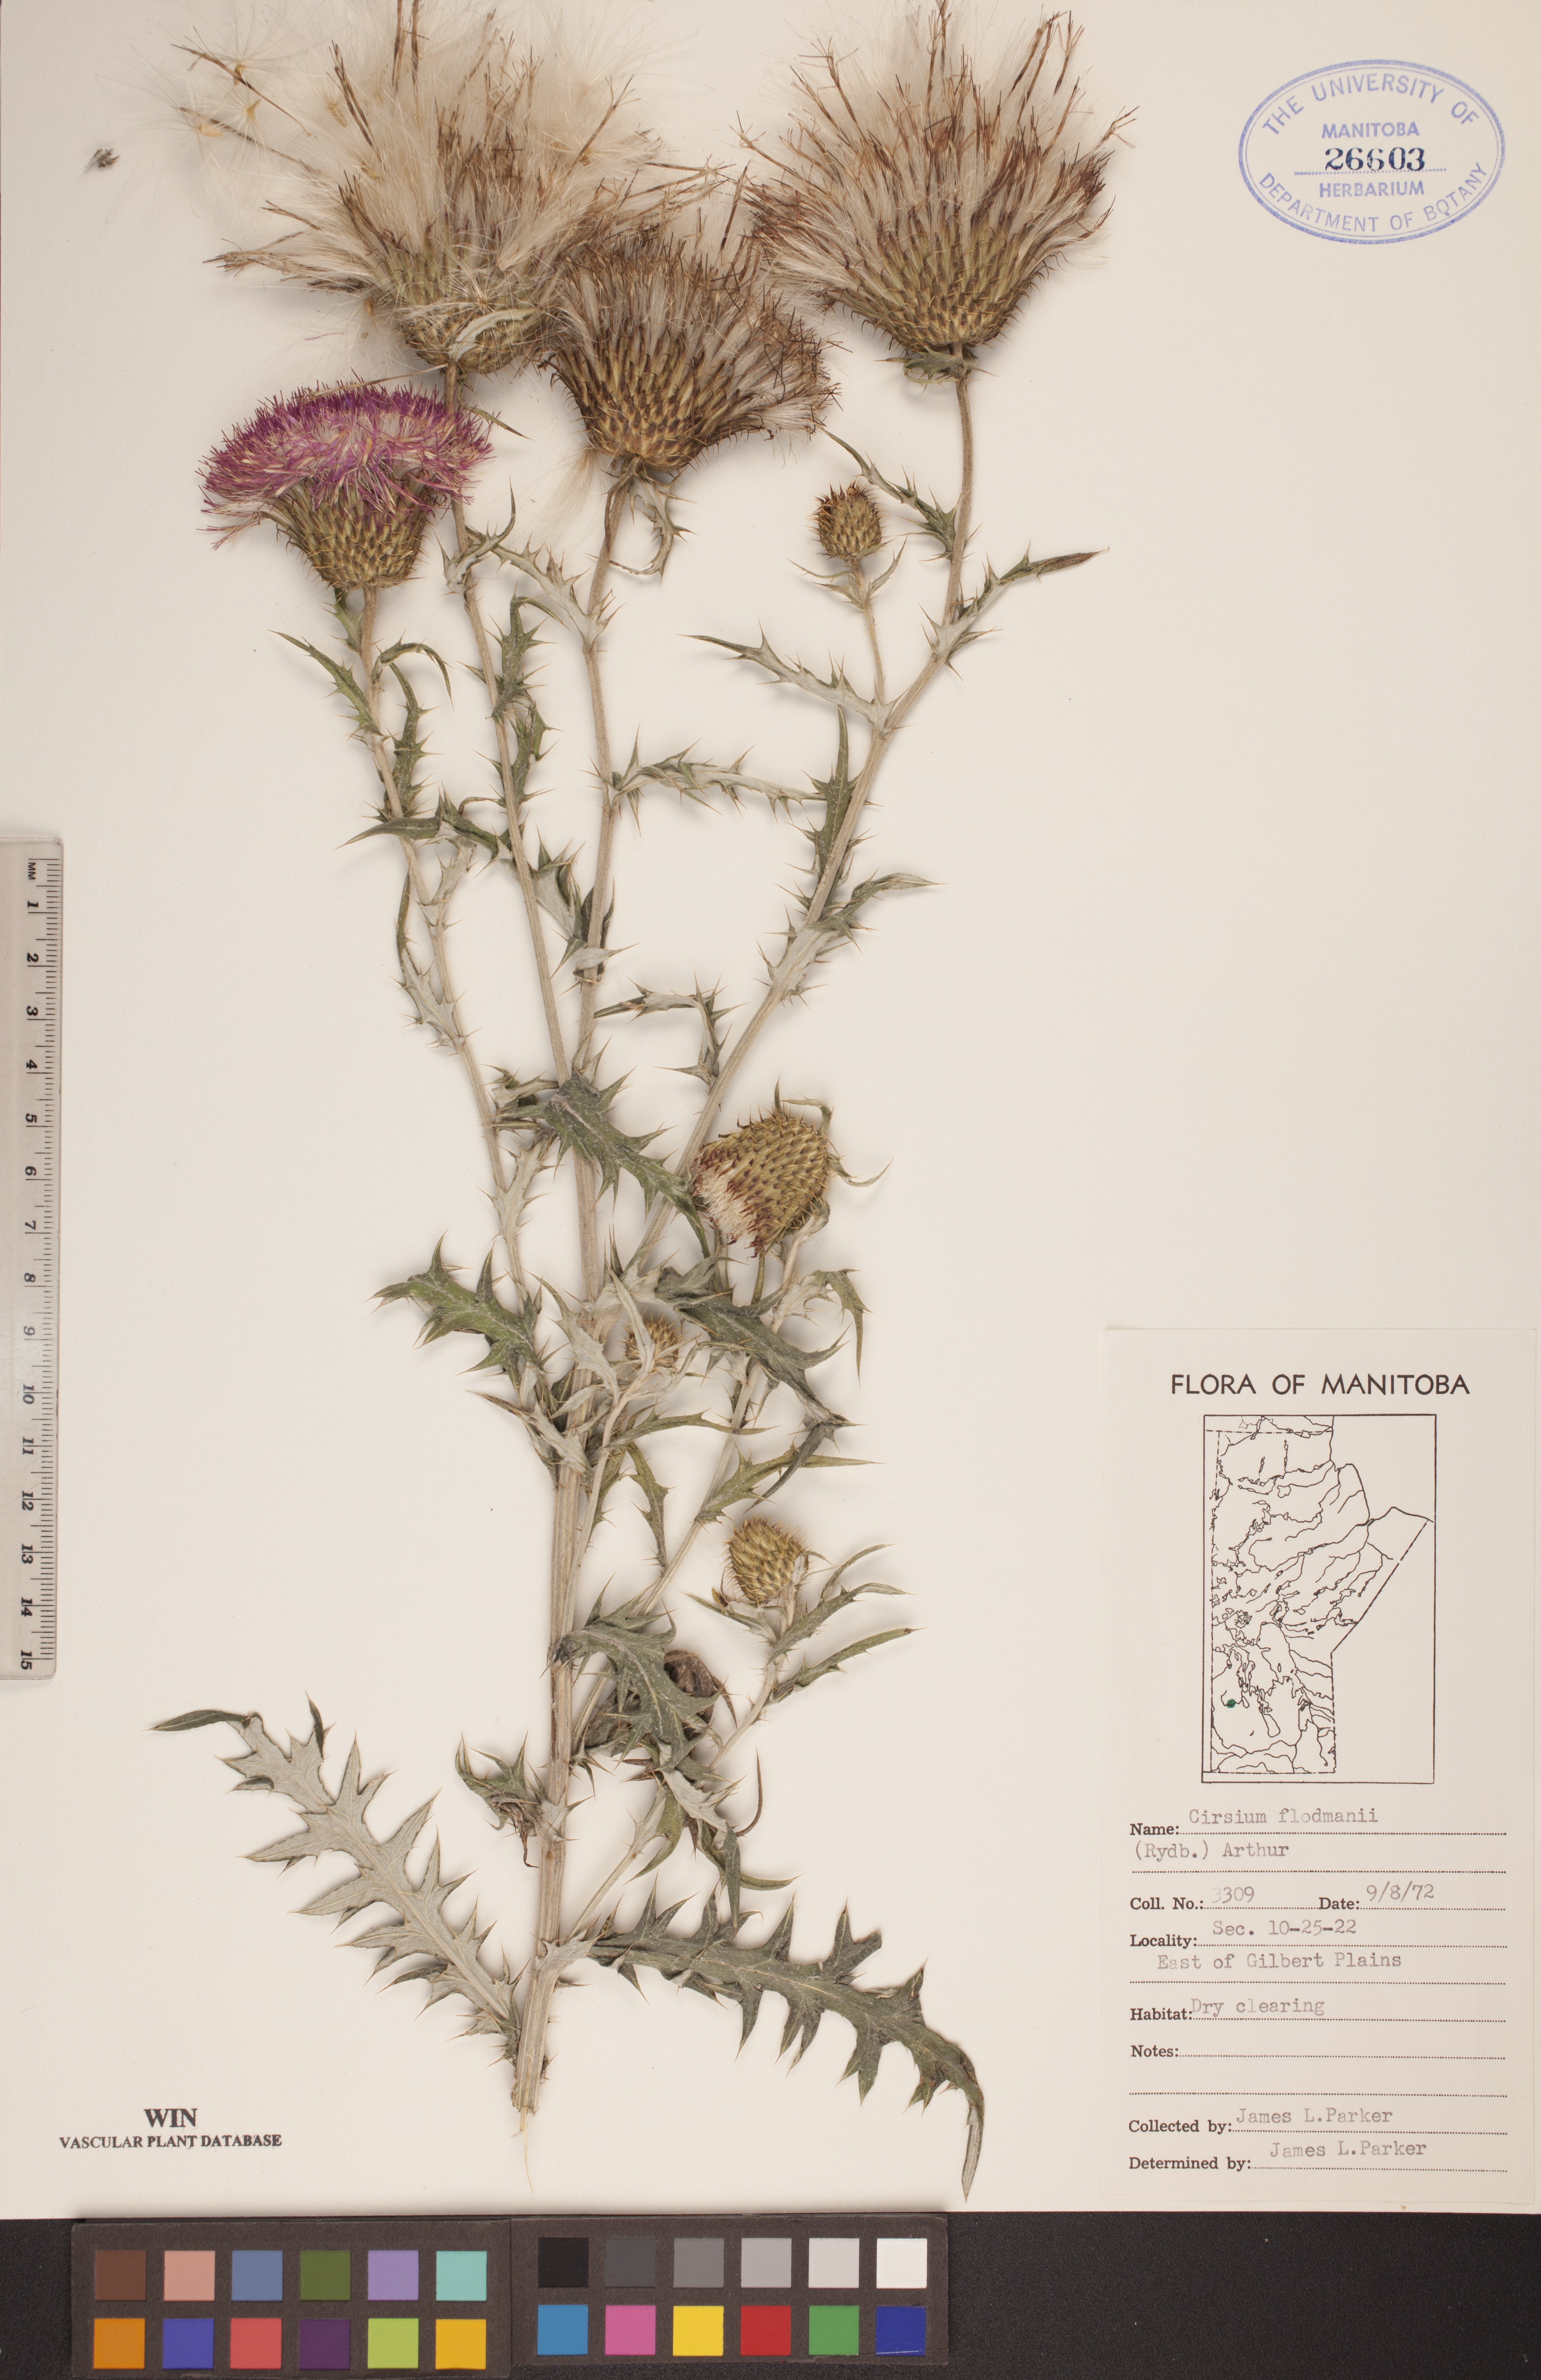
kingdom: Plantae
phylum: Tracheophyta
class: Magnoliopsida
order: Asterales
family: Asteraceae
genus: Cirsium
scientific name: Cirsium flodmanii
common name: Flodman's thistle
